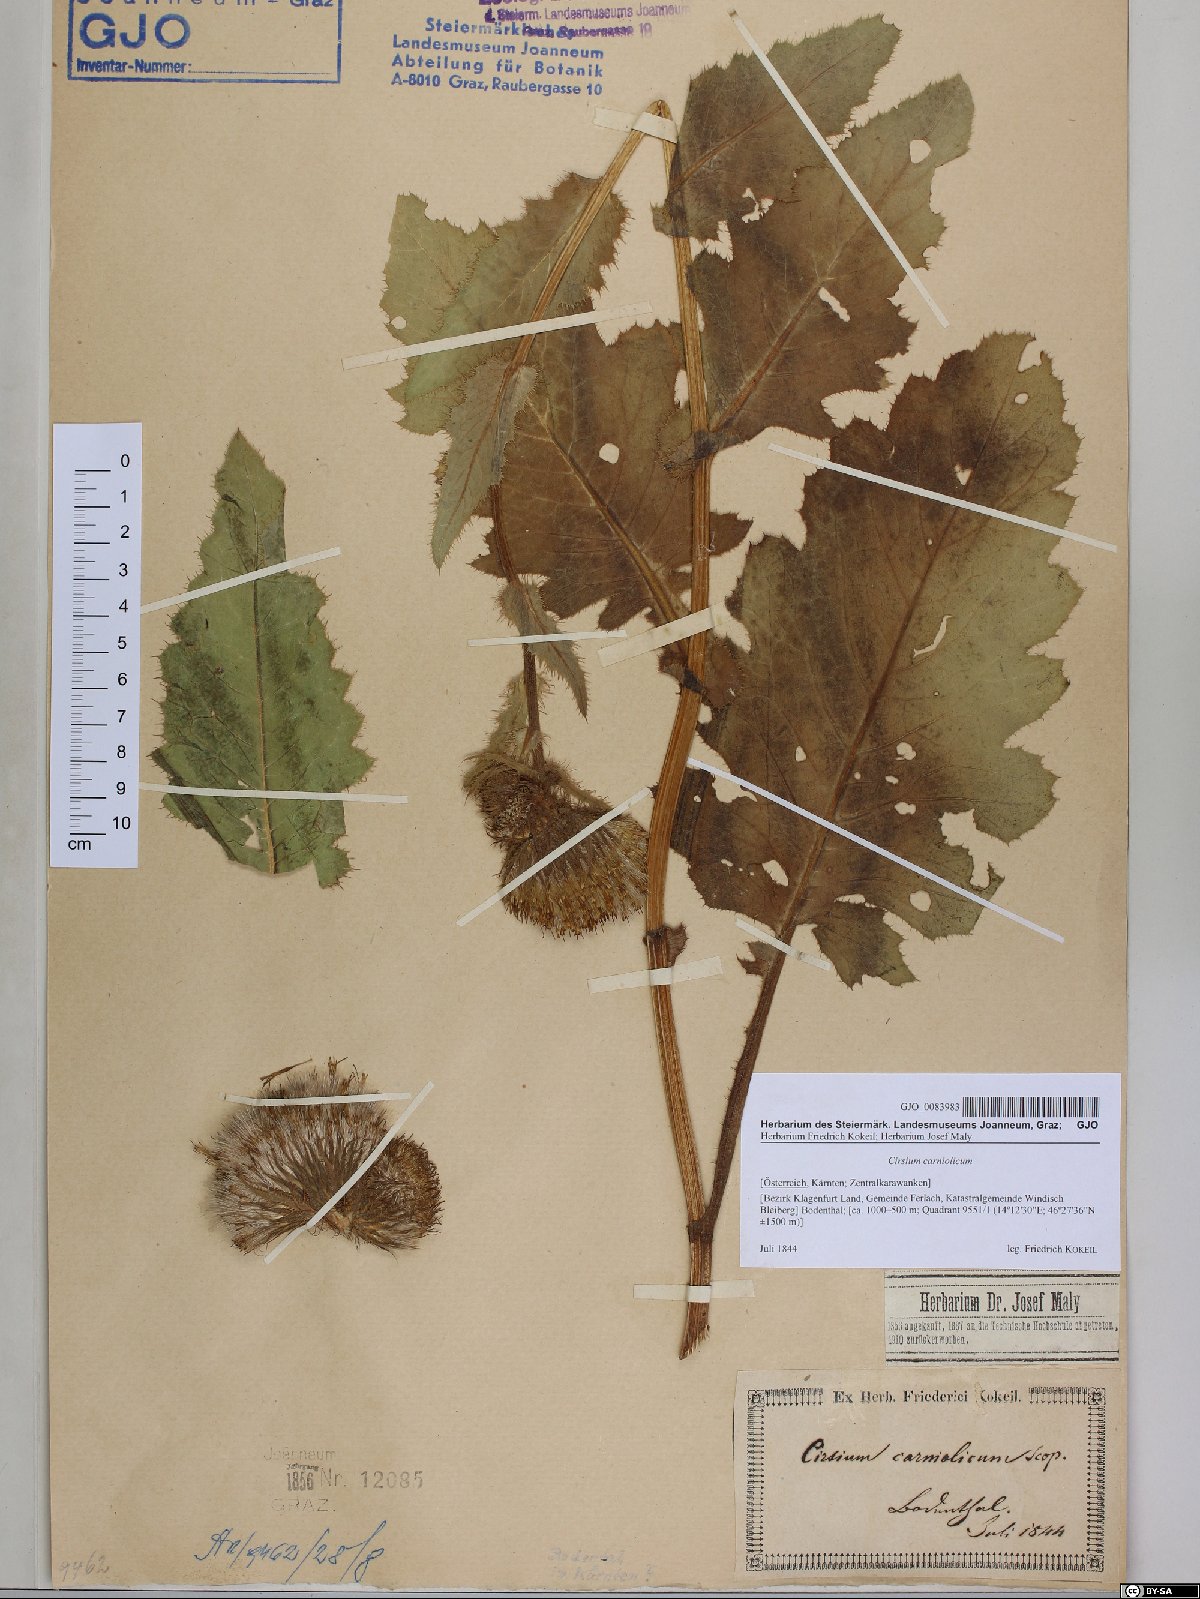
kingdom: Plantae
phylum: Tracheophyta
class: Magnoliopsida
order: Asterales
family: Asteraceae
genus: Cirsium
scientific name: Cirsium carniolicum
